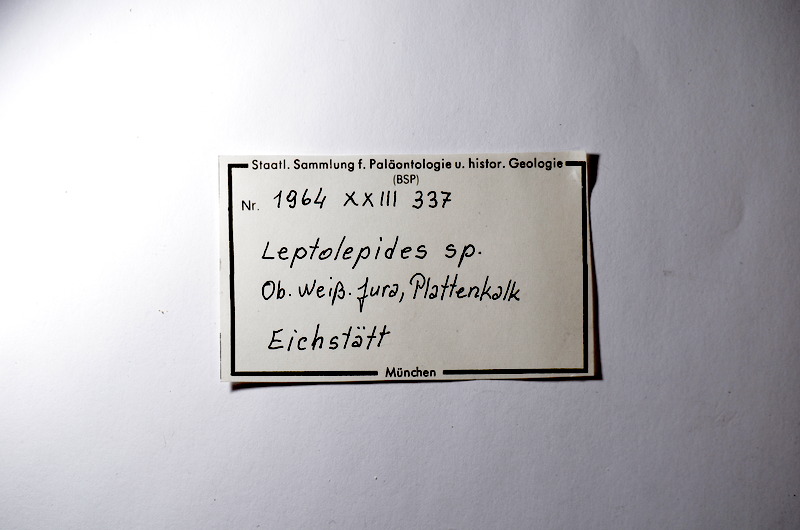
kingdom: Animalia
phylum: Chordata
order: Salmoniformes
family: Orthogonikleithridae
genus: Leptolepides
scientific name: Leptolepides
